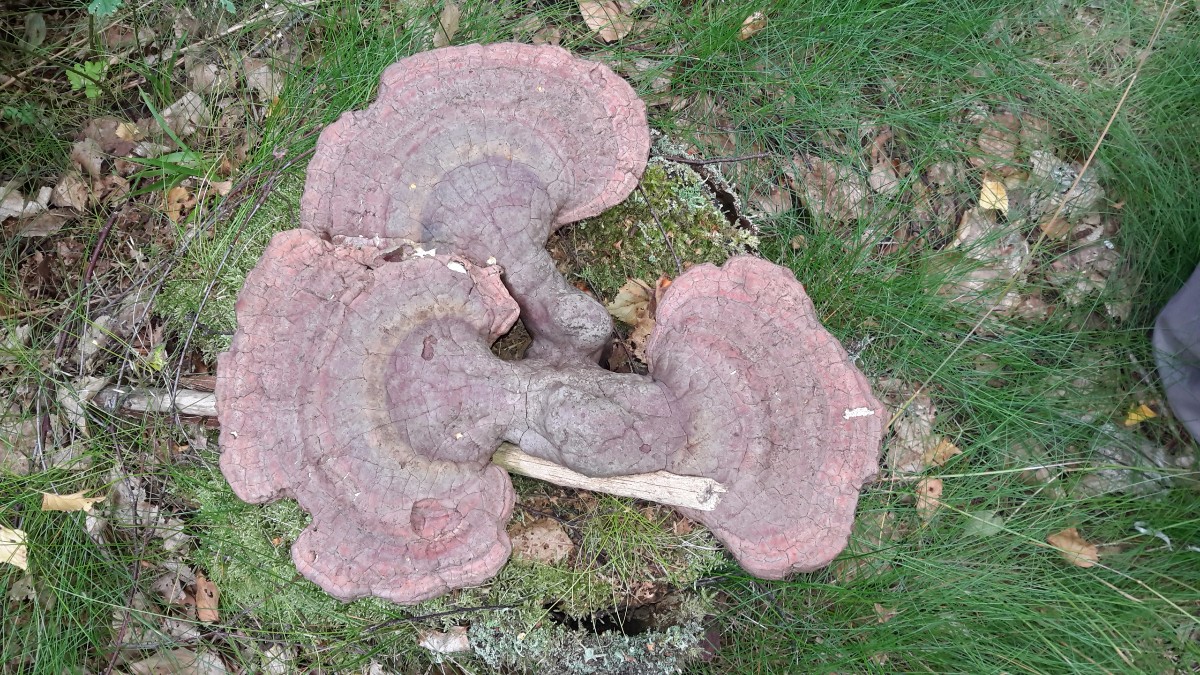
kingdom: Fungi
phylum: Basidiomycota
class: Agaricomycetes
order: Polyporales
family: Polyporaceae
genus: Ganoderma
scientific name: Ganoderma lucidum
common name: skinnende lakporesvamp
